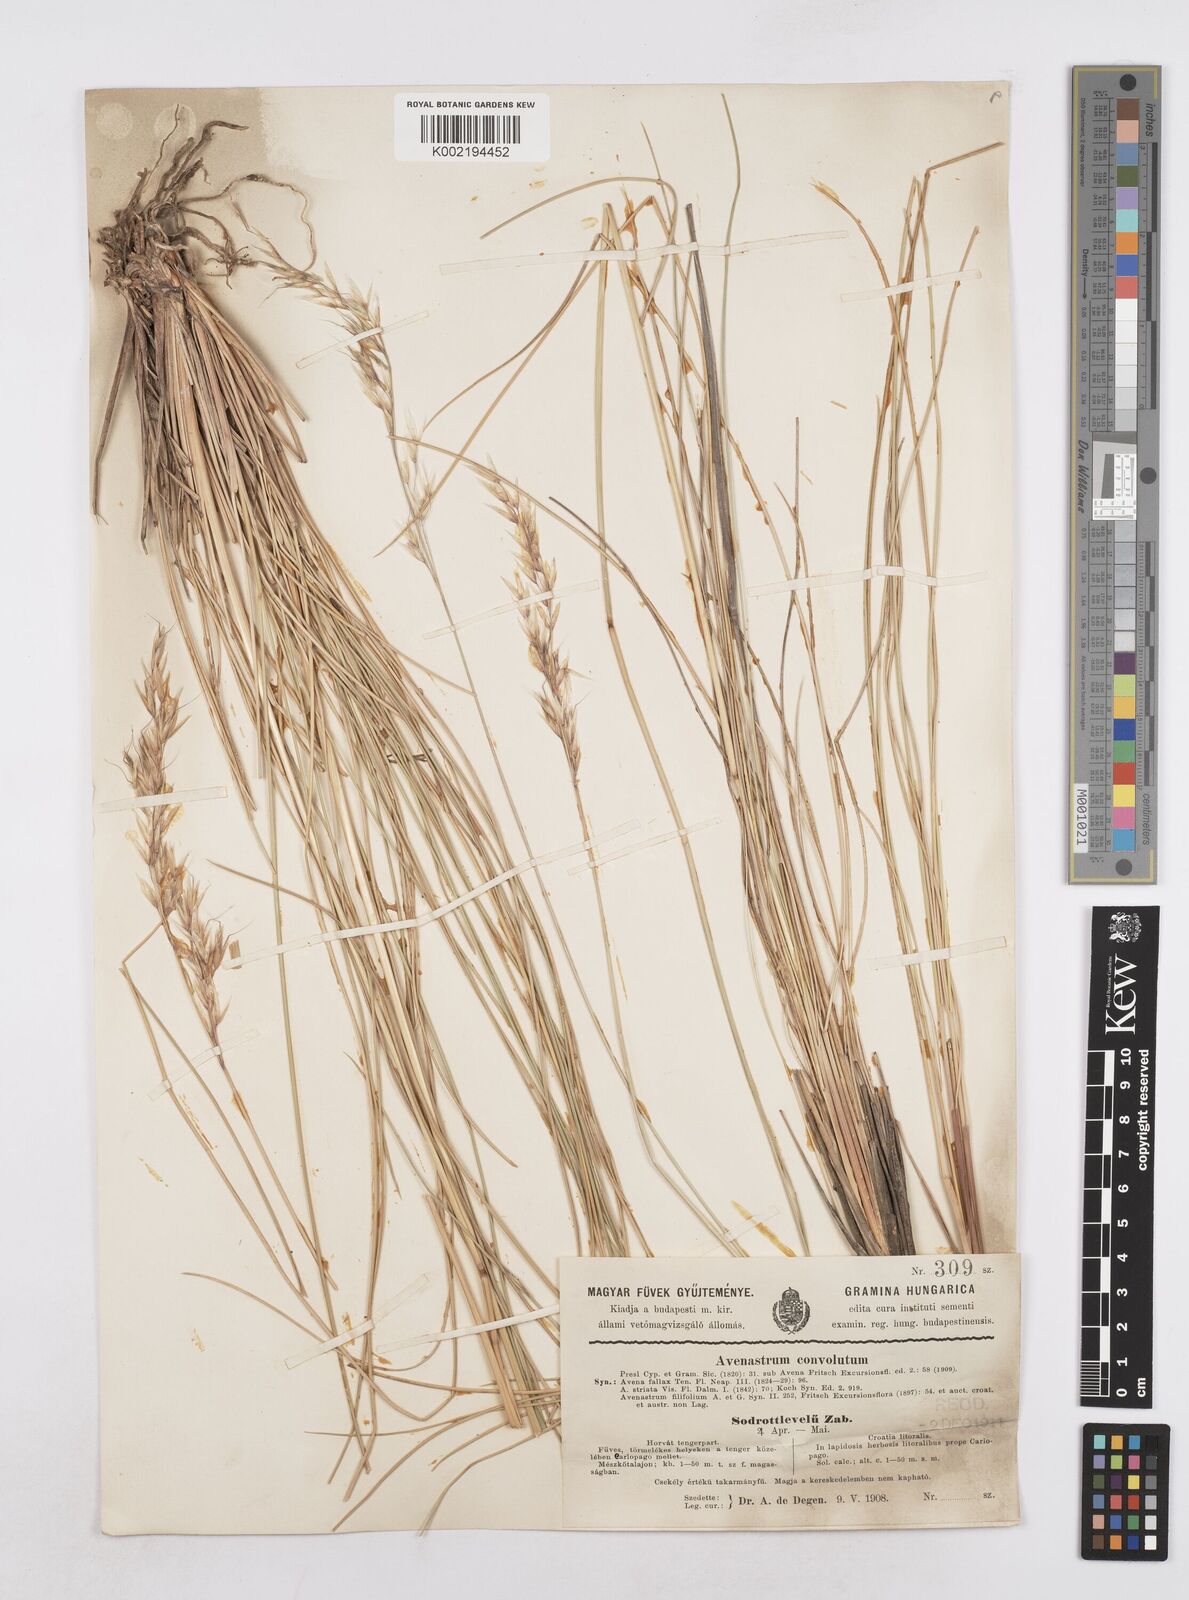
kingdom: Plantae
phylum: Tracheophyta
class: Liliopsida
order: Poales
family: Poaceae
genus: Helictotrichon
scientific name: Helictotrichon convolutum
